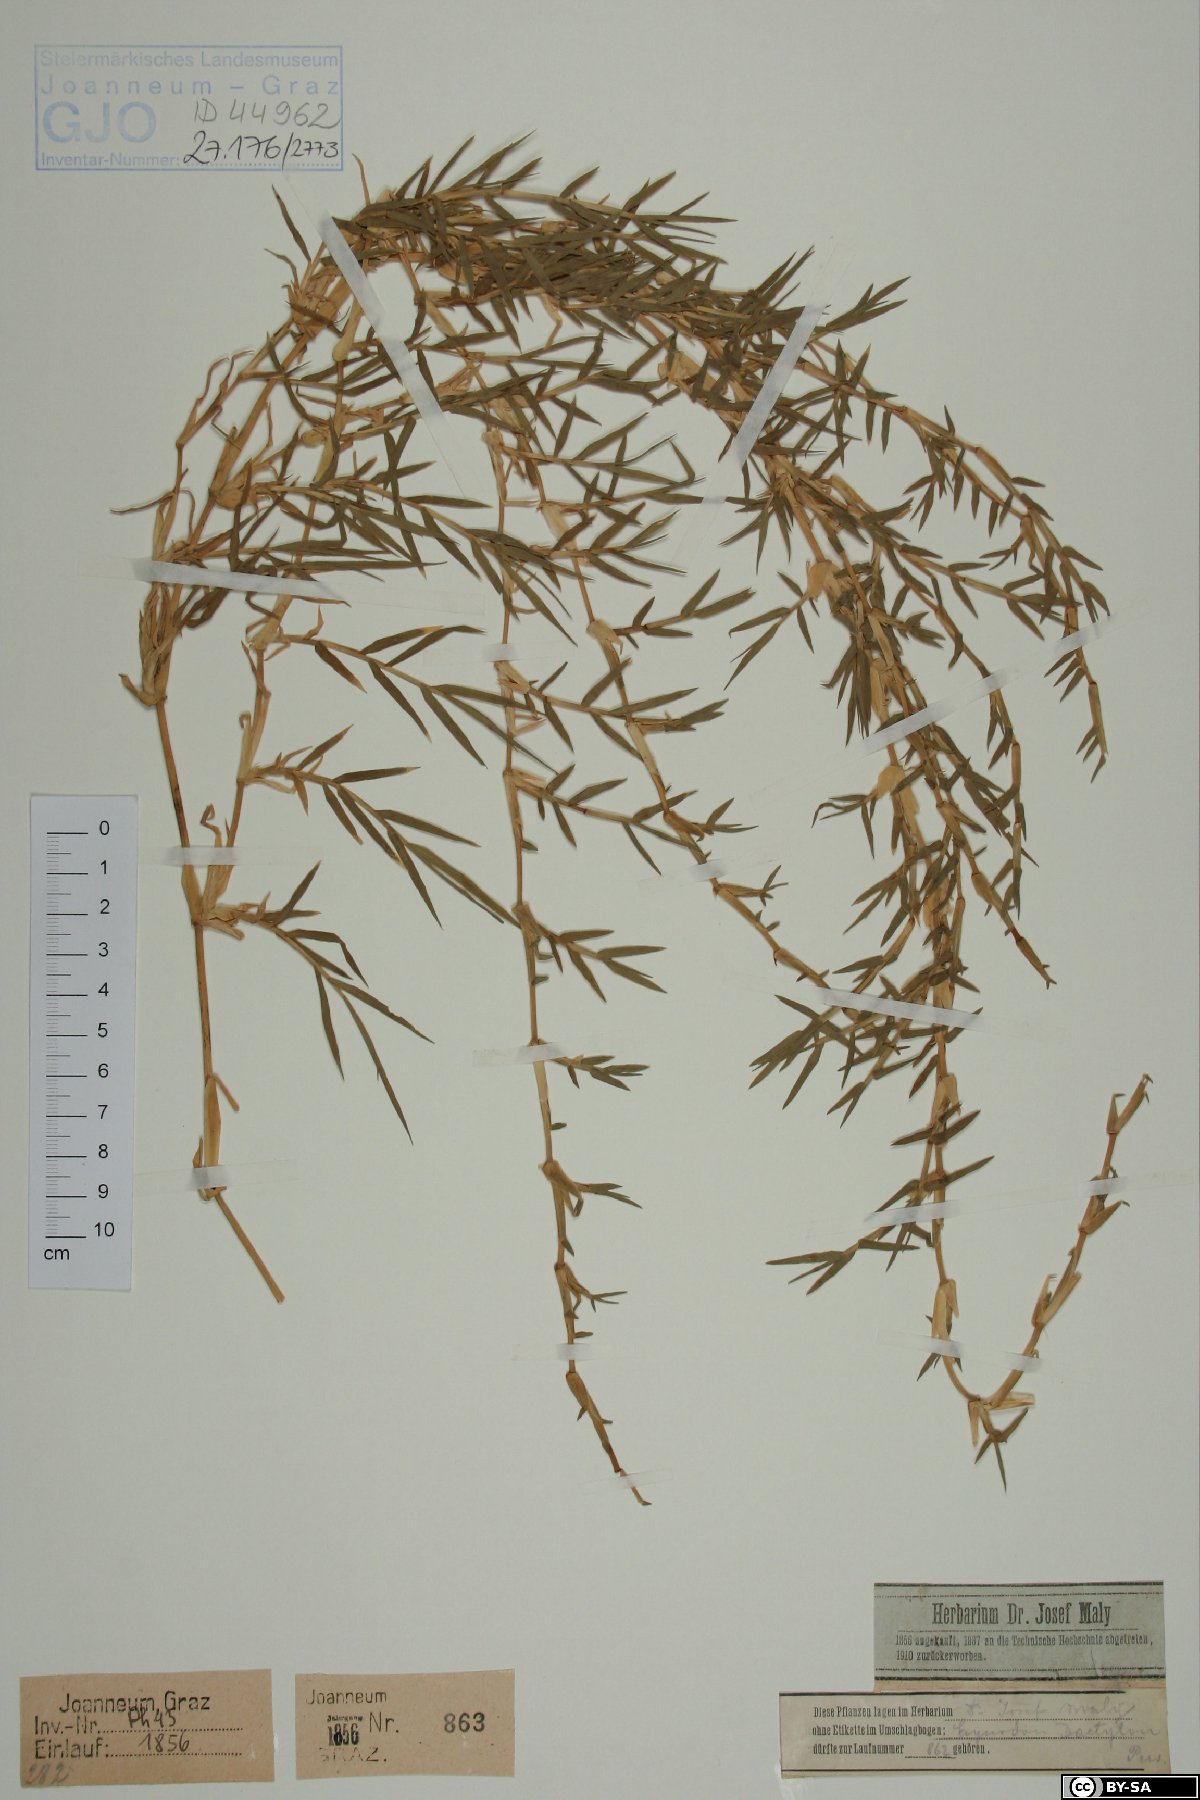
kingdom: Plantae
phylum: Tracheophyta
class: Liliopsida
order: Poales
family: Poaceae
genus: Cynodon
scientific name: Cynodon dactylon
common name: Bermuda grass
